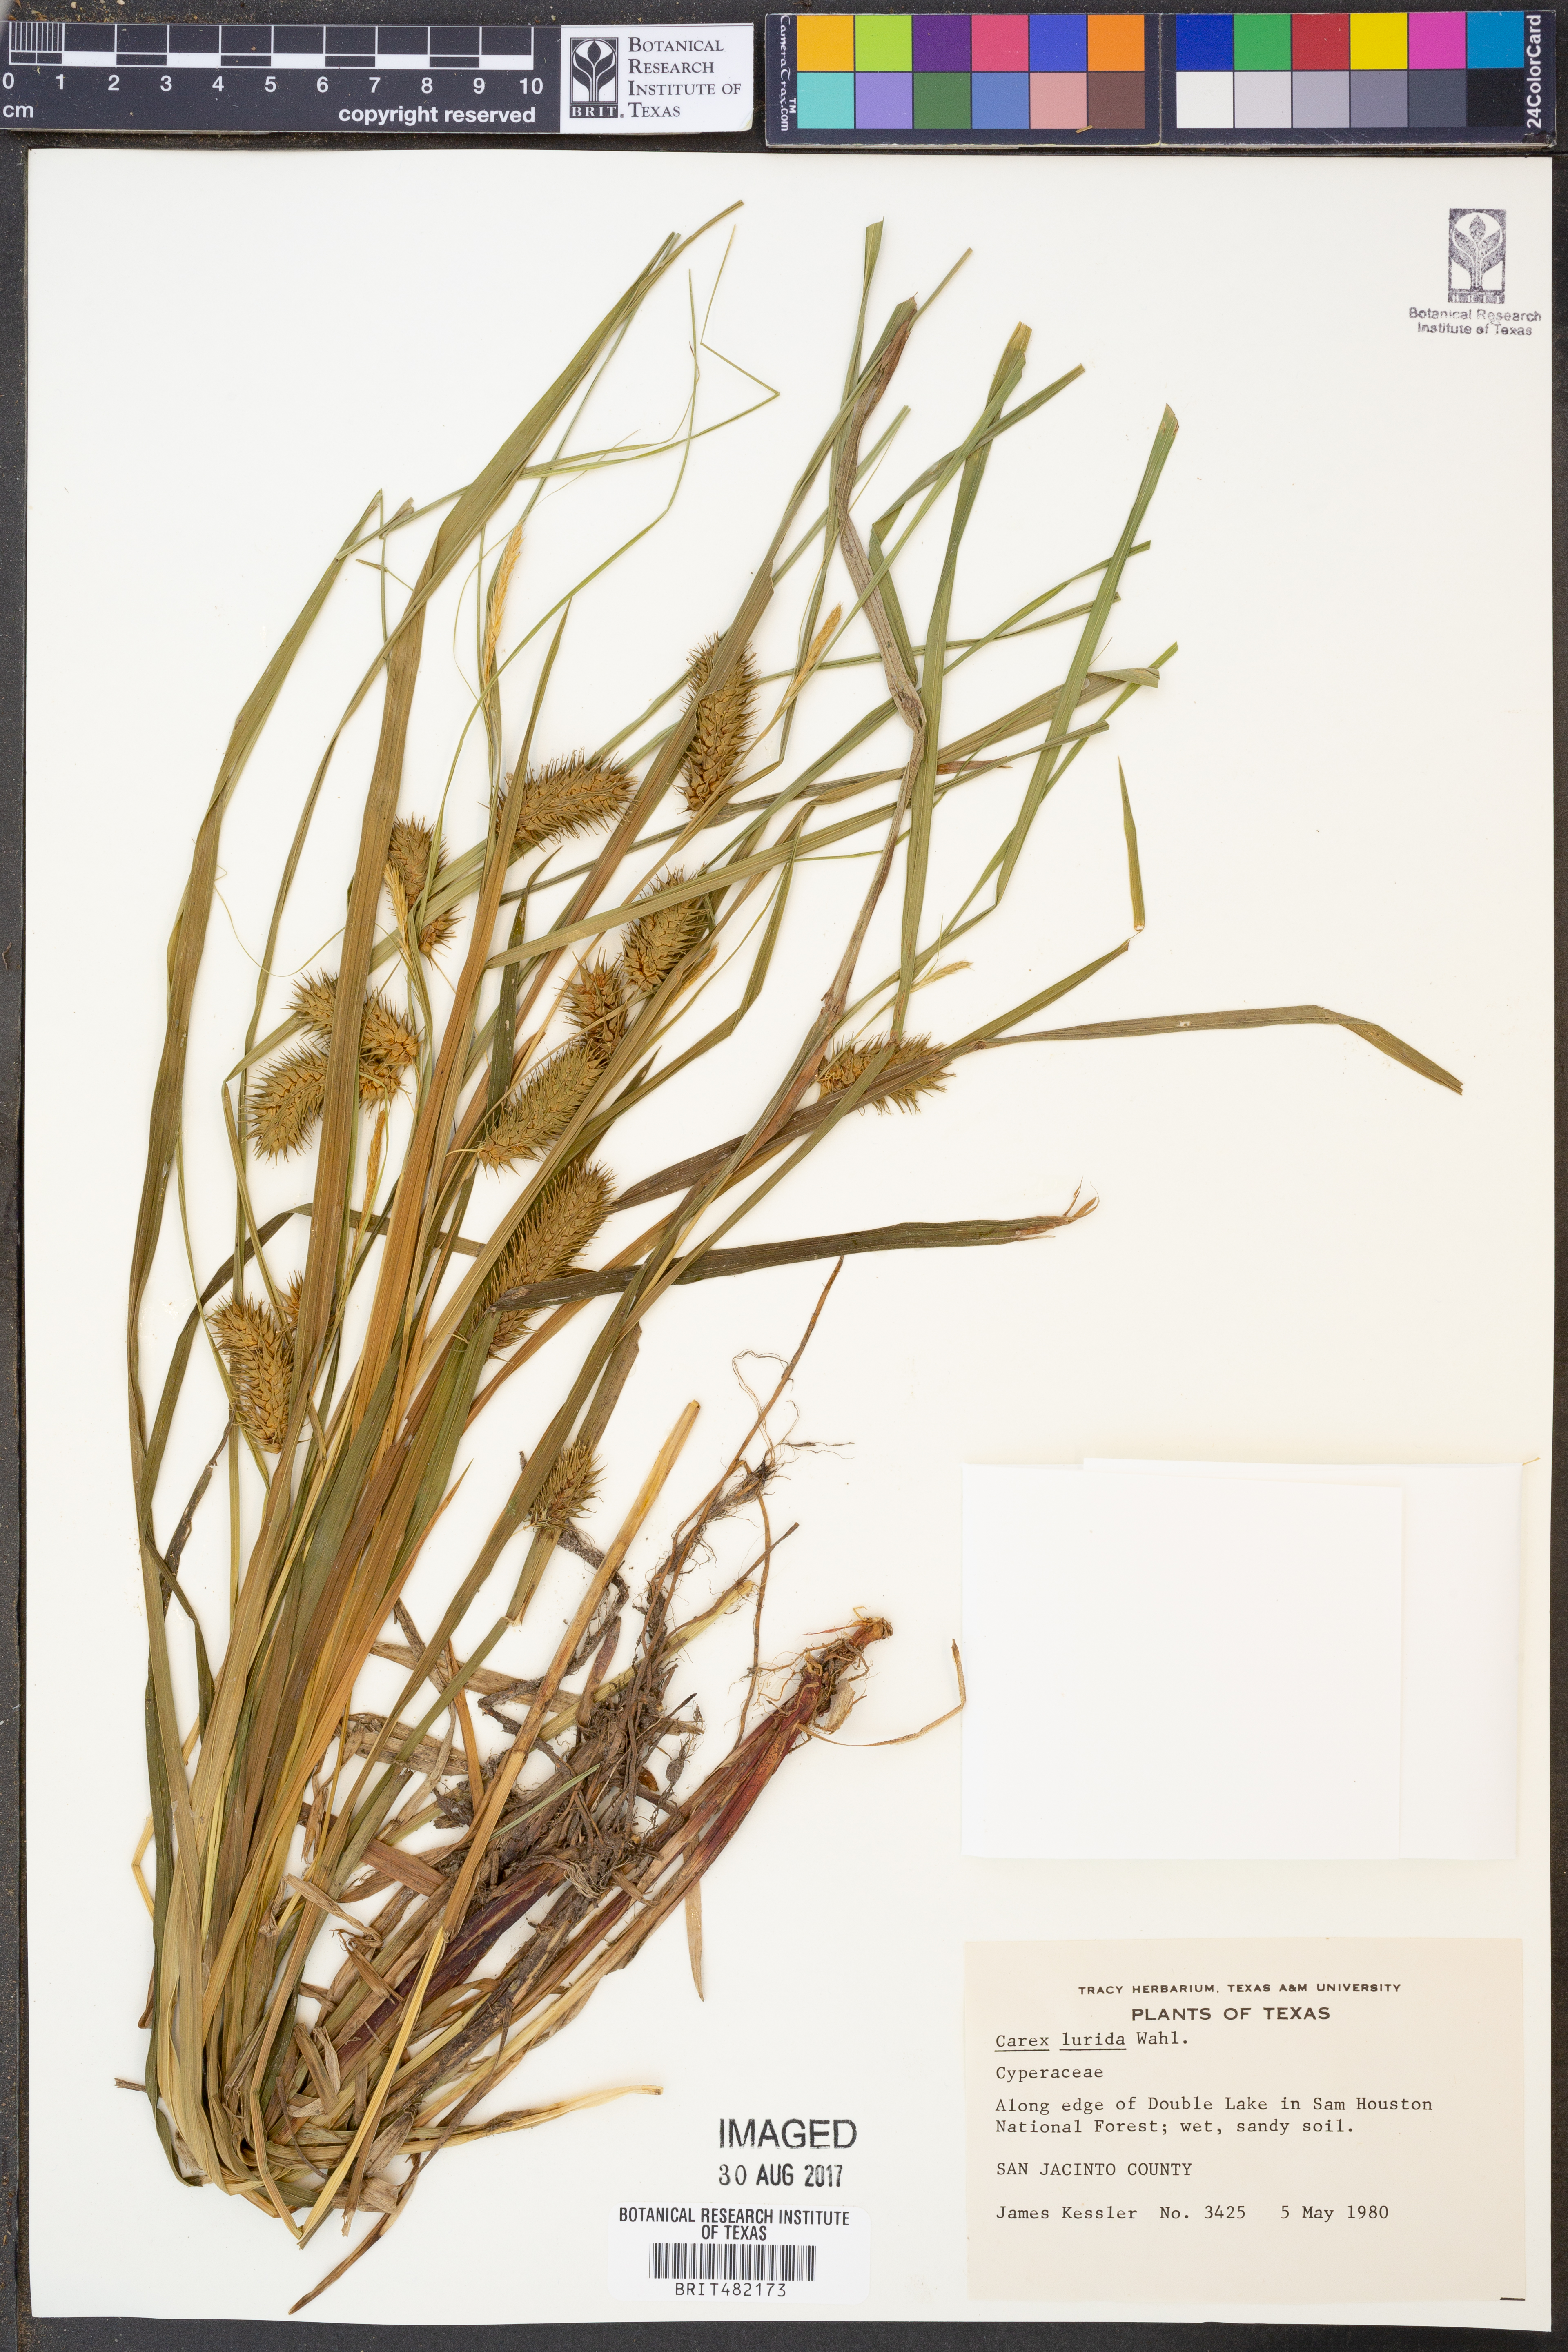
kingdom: Plantae
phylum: Tracheophyta
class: Liliopsida
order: Poales
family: Cyperaceae
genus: Carex
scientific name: Carex lurida
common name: Sallow sedge
